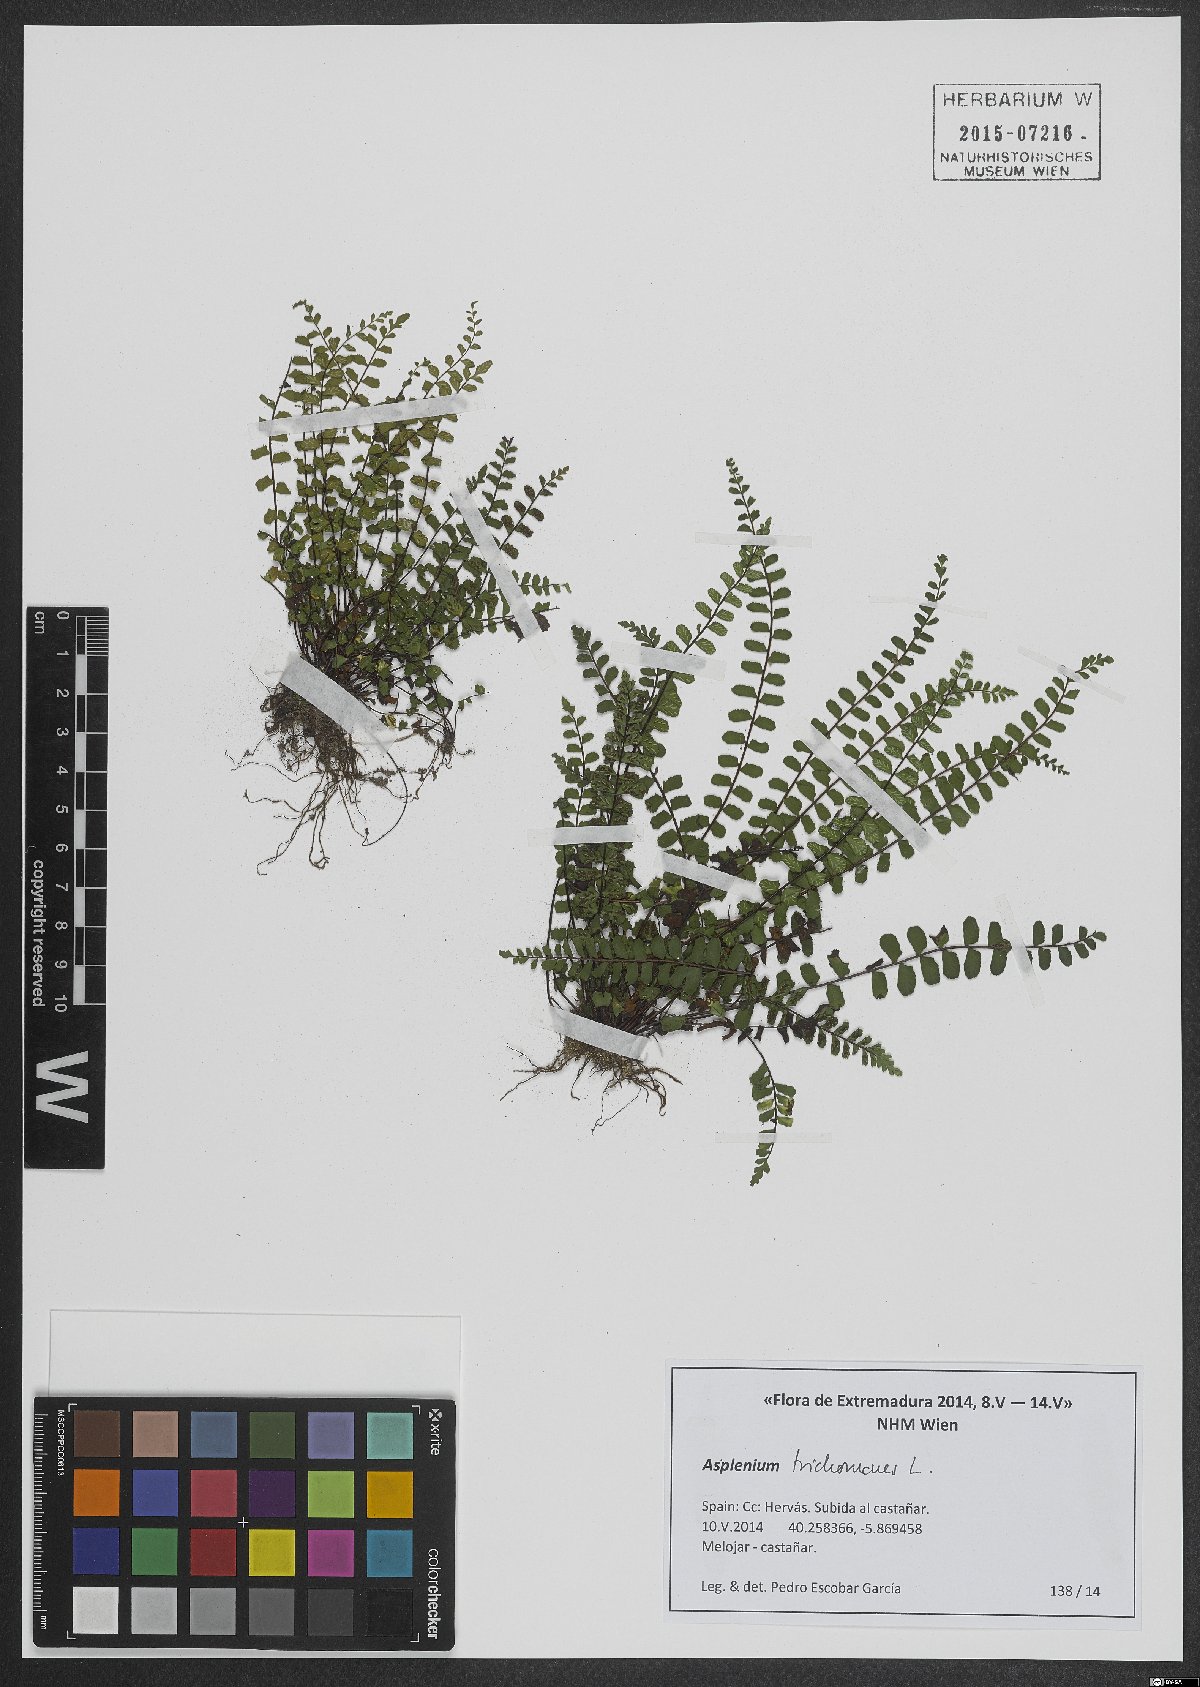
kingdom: Plantae
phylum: Tracheophyta
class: Polypodiopsida
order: Polypodiales
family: Aspleniaceae
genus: Asplenium
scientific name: Asplenium trichomanes
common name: Maidenhair spleenwort
